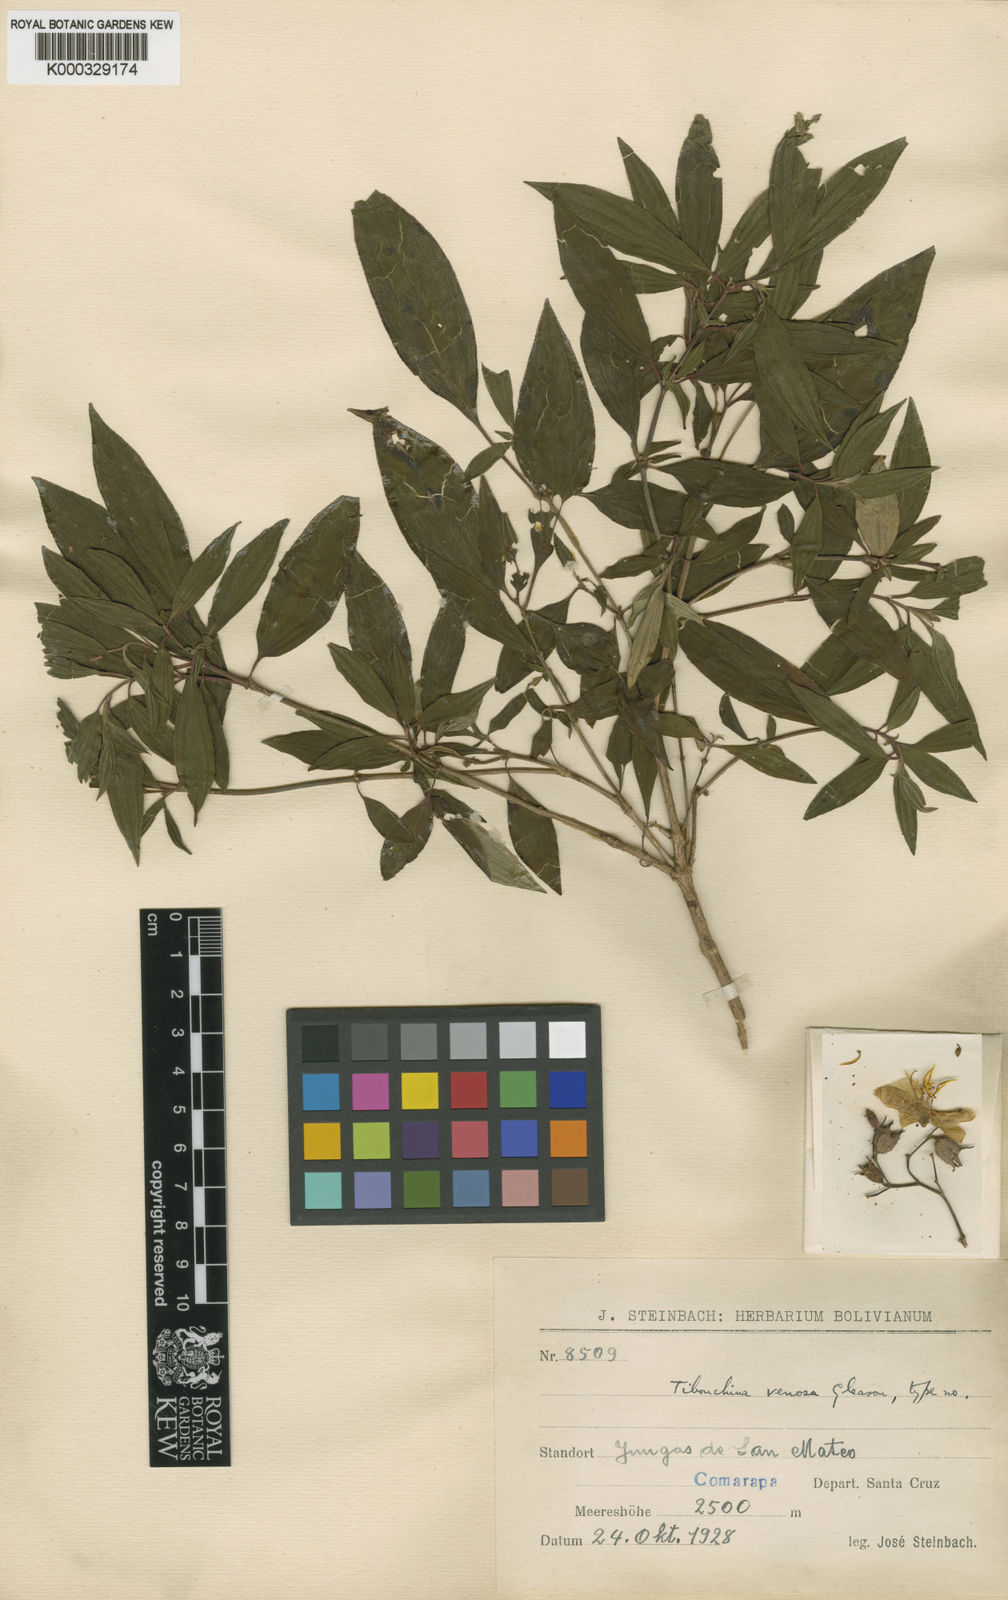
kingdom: Plantae
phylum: Tracheophyta
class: Magnoliopsida
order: Myrtales
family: Melastomataceae
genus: Chaetogastra
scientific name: Chaetogastra venosa
